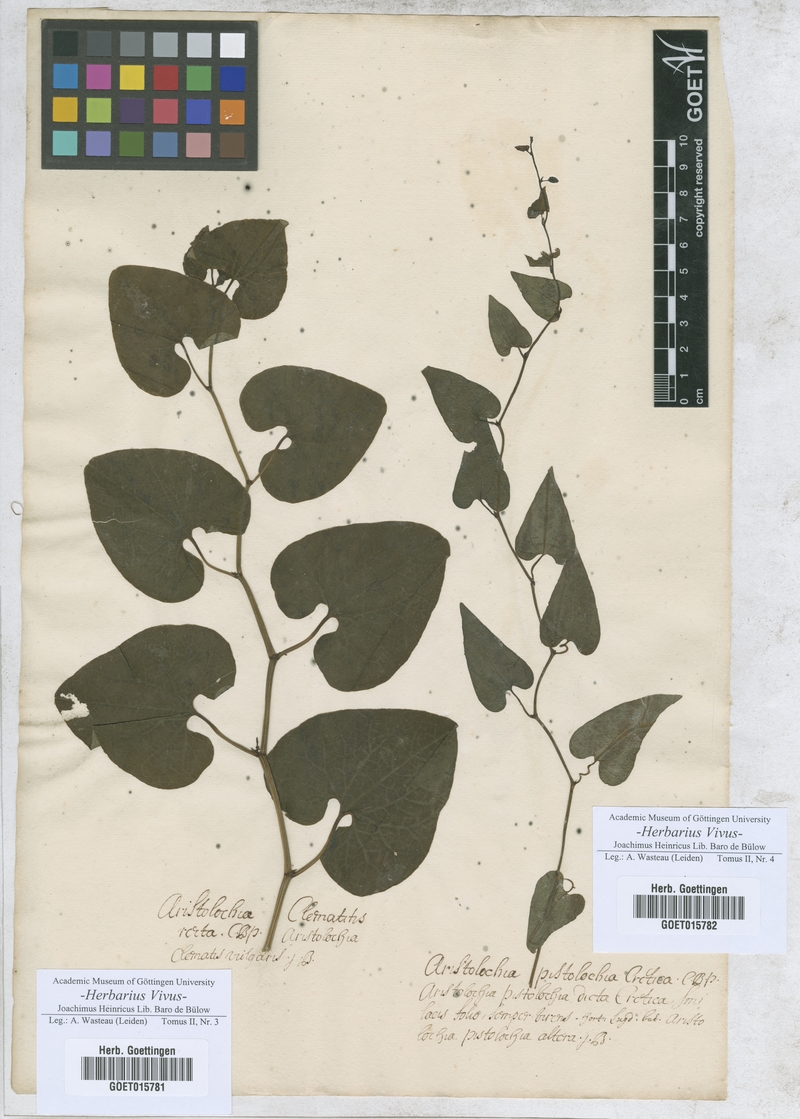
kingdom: Plantae
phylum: Tracheophyta
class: Magnoliopsida
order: Piperales
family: Aristolochiaceae
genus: Aristolochia
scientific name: Aristolochia clematitis
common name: Birthwort
